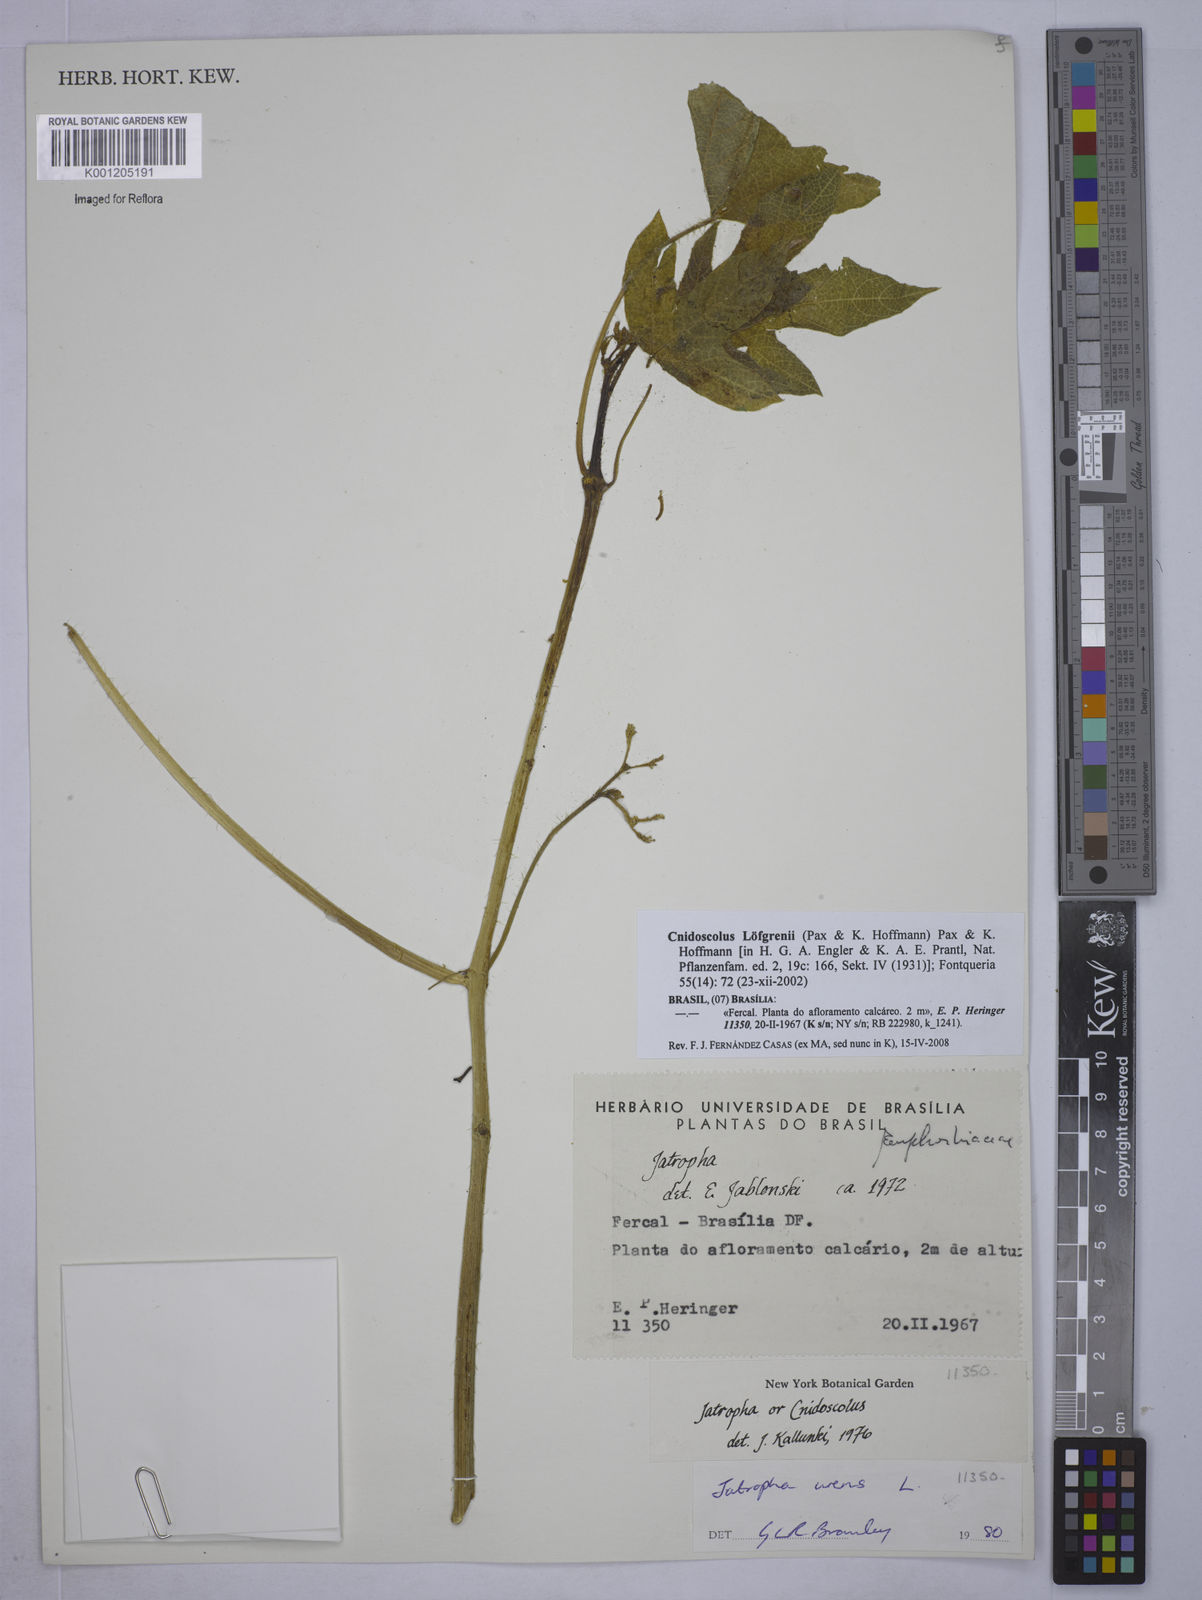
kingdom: Plantae
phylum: Tracheophyta
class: Magnoliopsida
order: Malpighiales
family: Euphorbiaceae
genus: Cnidoscolus
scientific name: Cnidoscolus neglectus
